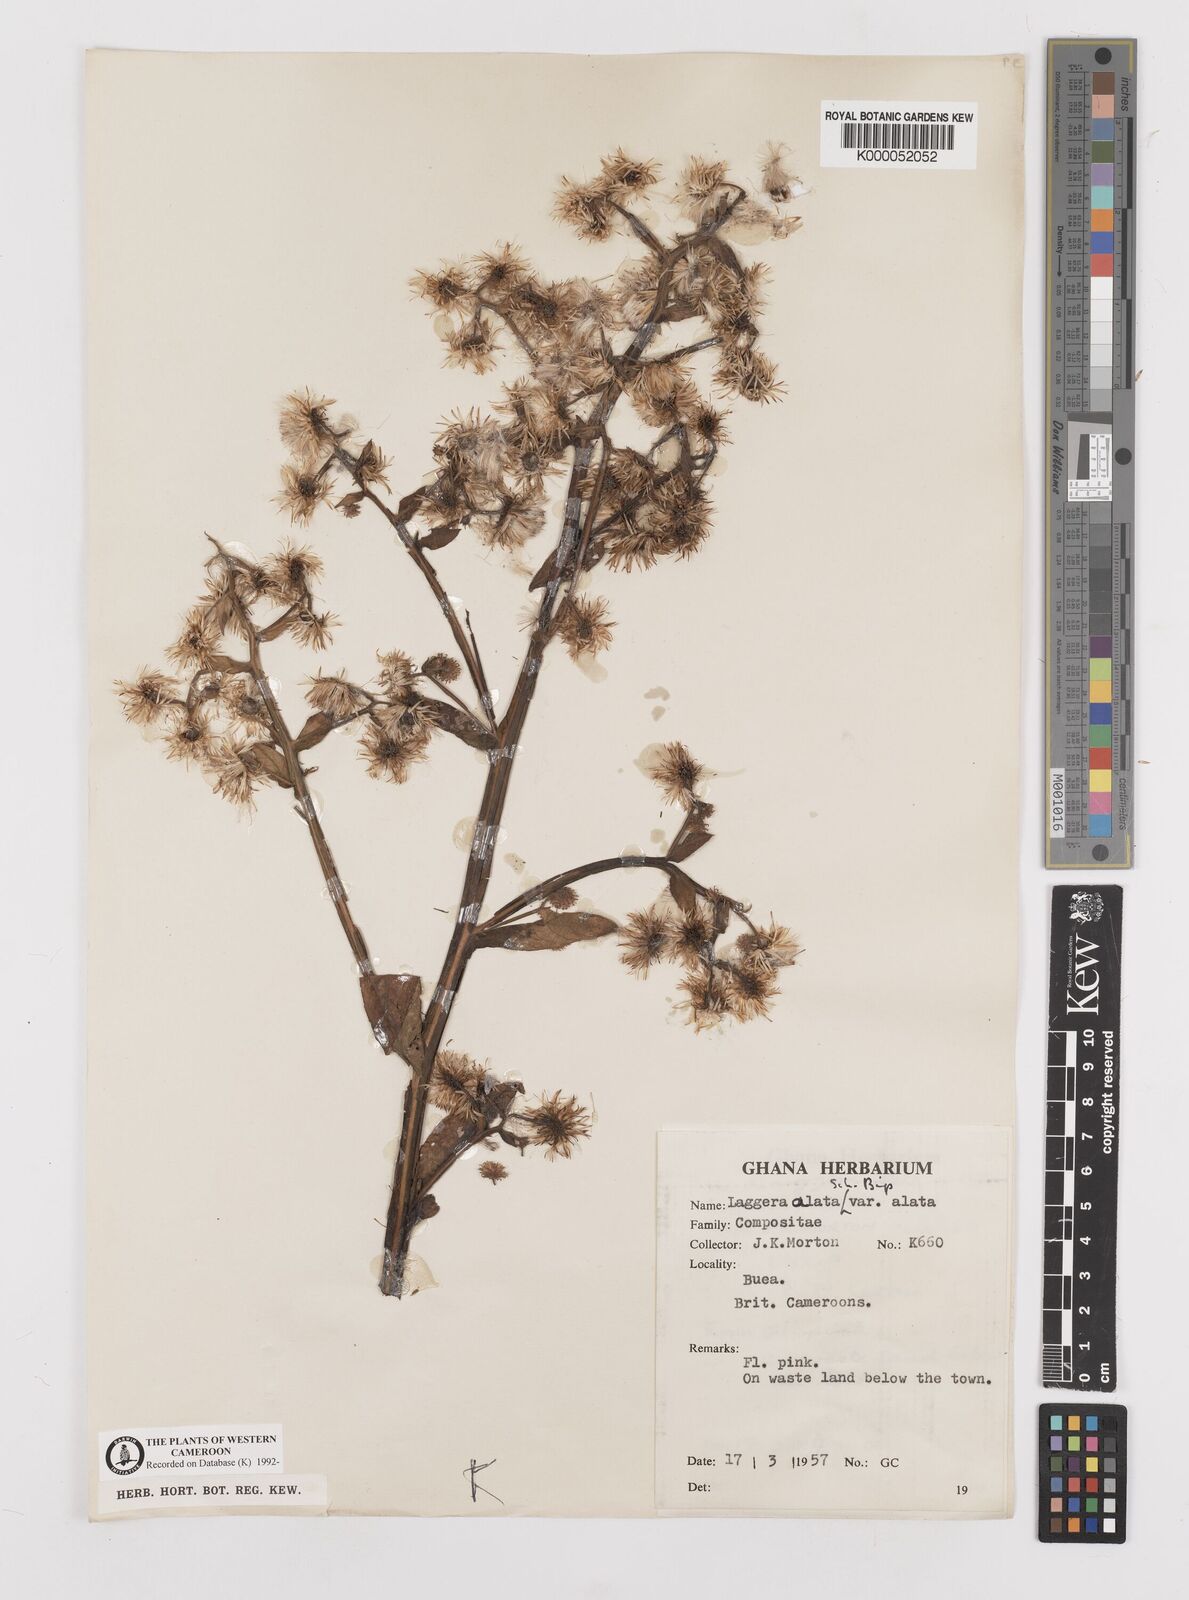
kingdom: Plantae
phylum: Tracheophyta
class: Magnoliopsida
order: Asterales
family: Asteraceae
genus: Laggera
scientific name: Laggera crispata
